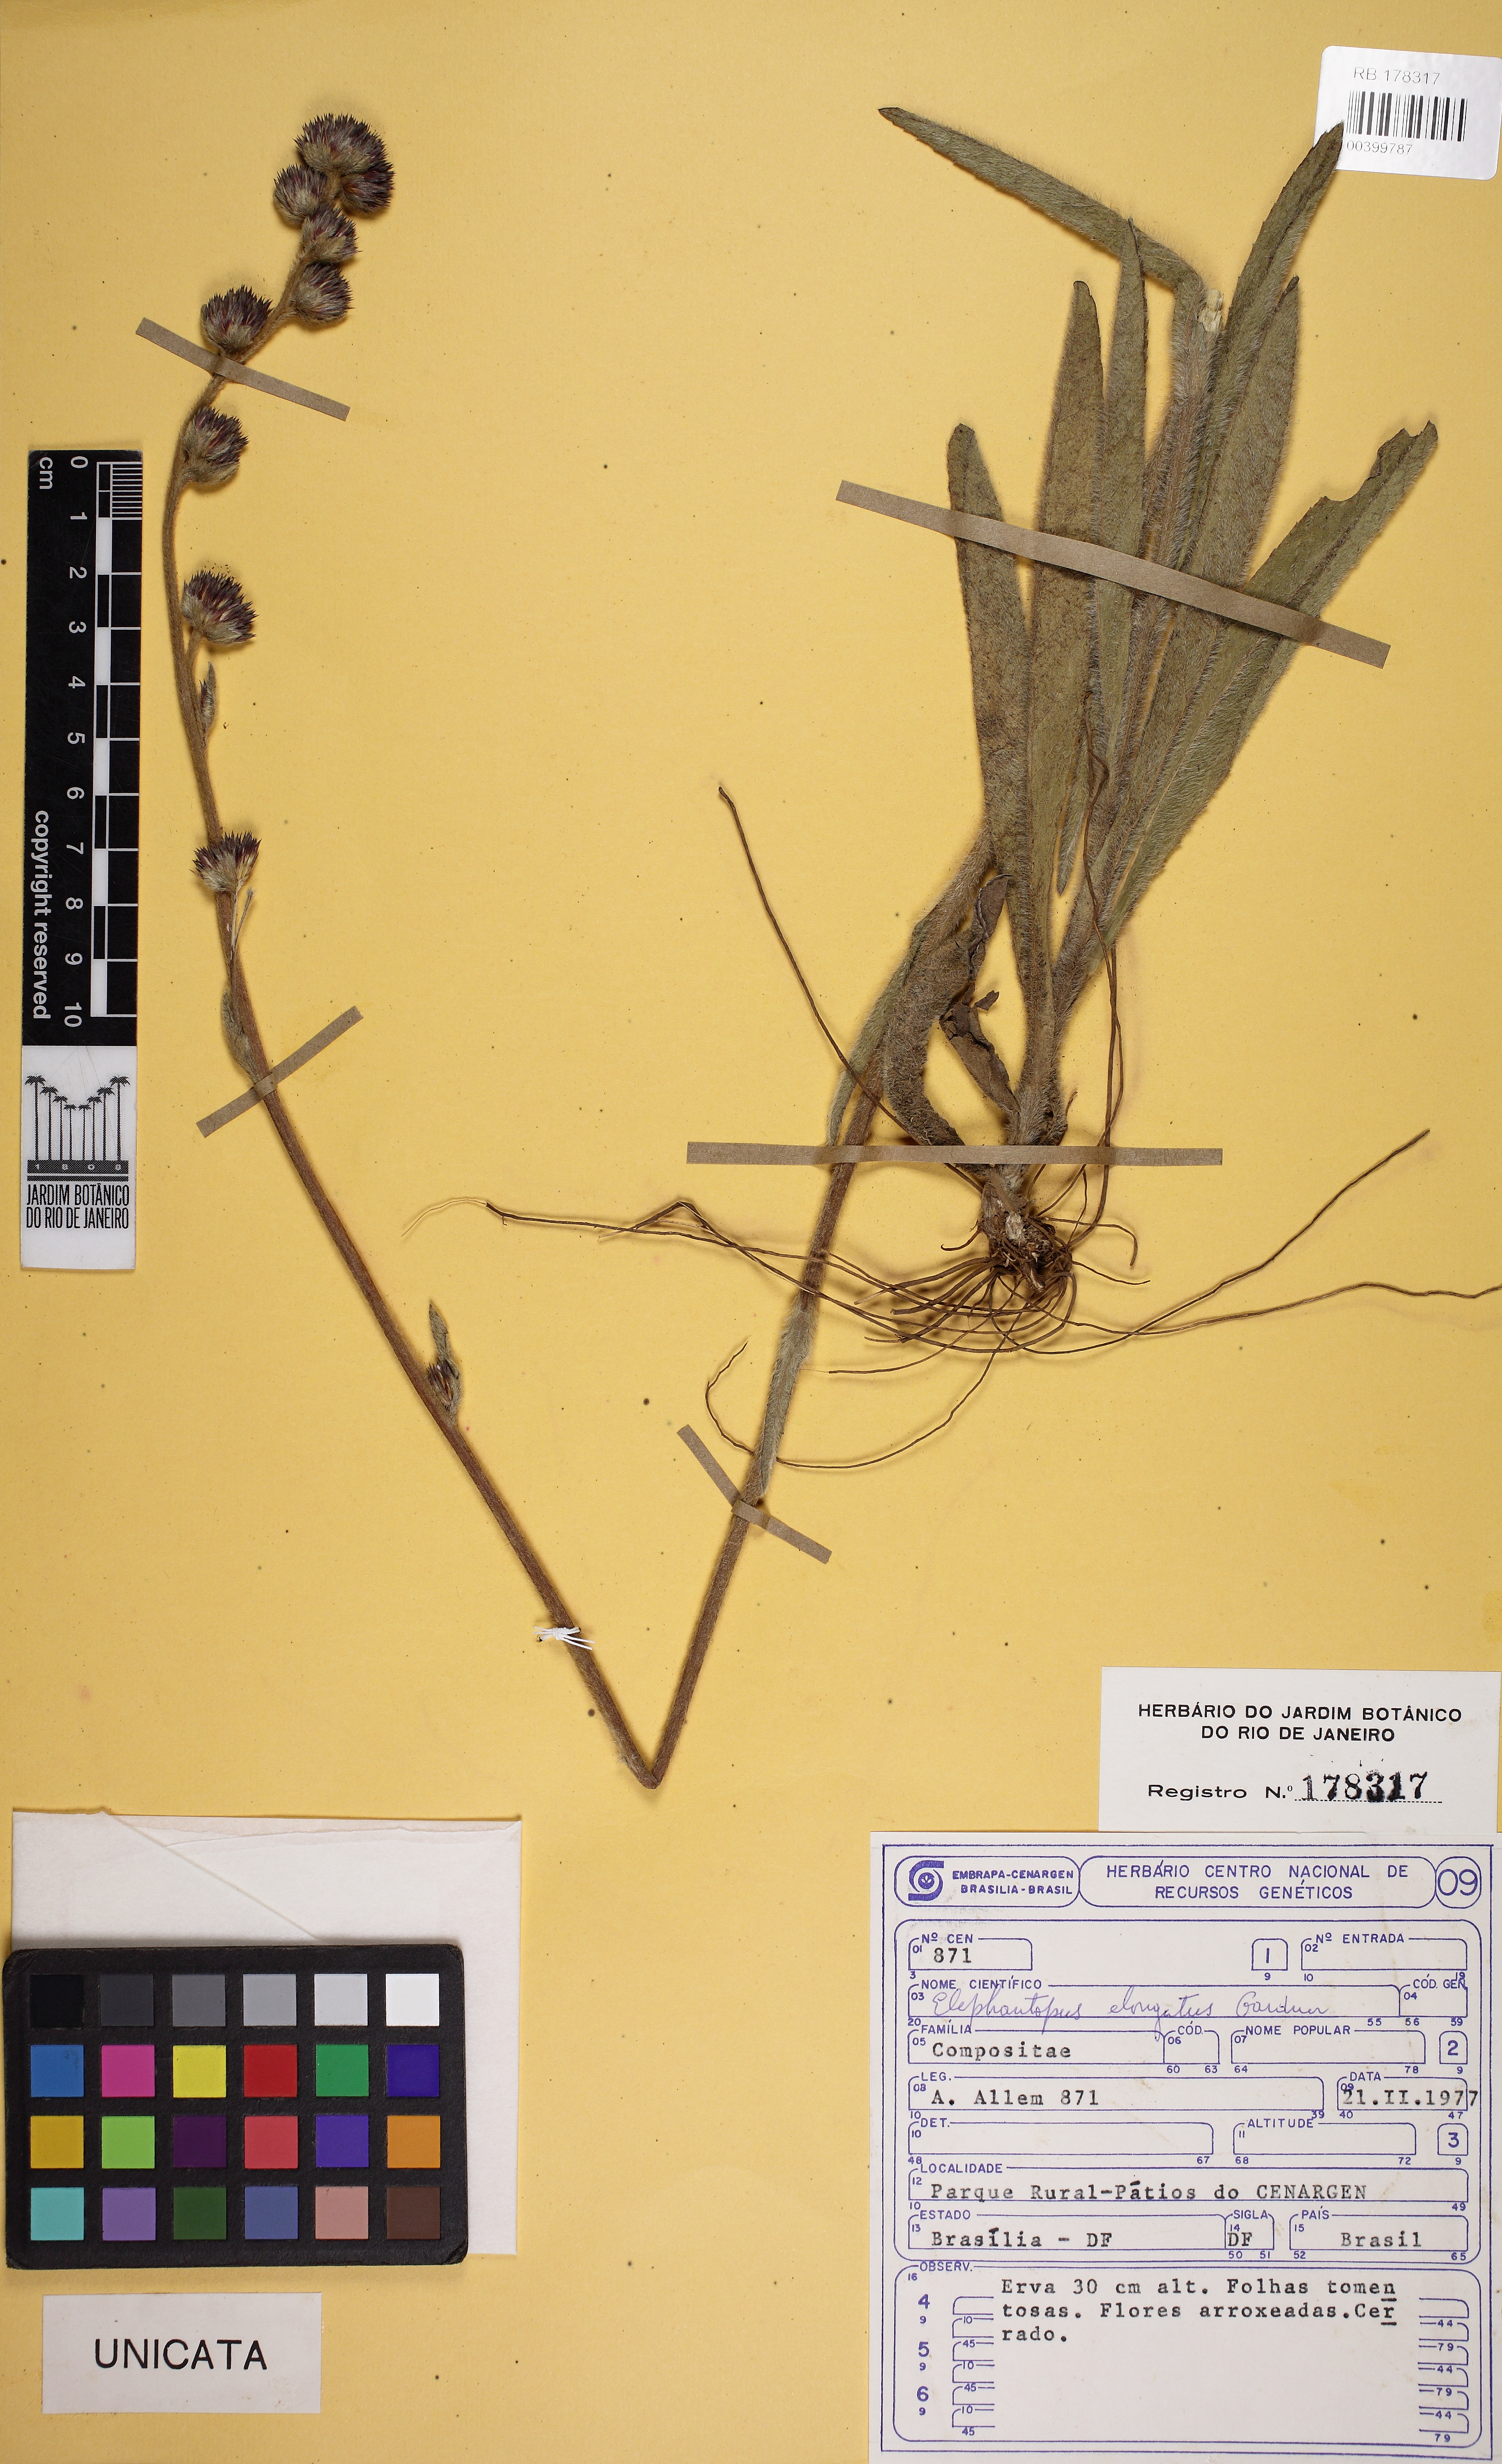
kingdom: Plantae
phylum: Tracheophyta
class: Magnoliopsida
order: Asterales
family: Asteraceae
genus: Elephantopus
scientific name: Elephantopus elongatus
